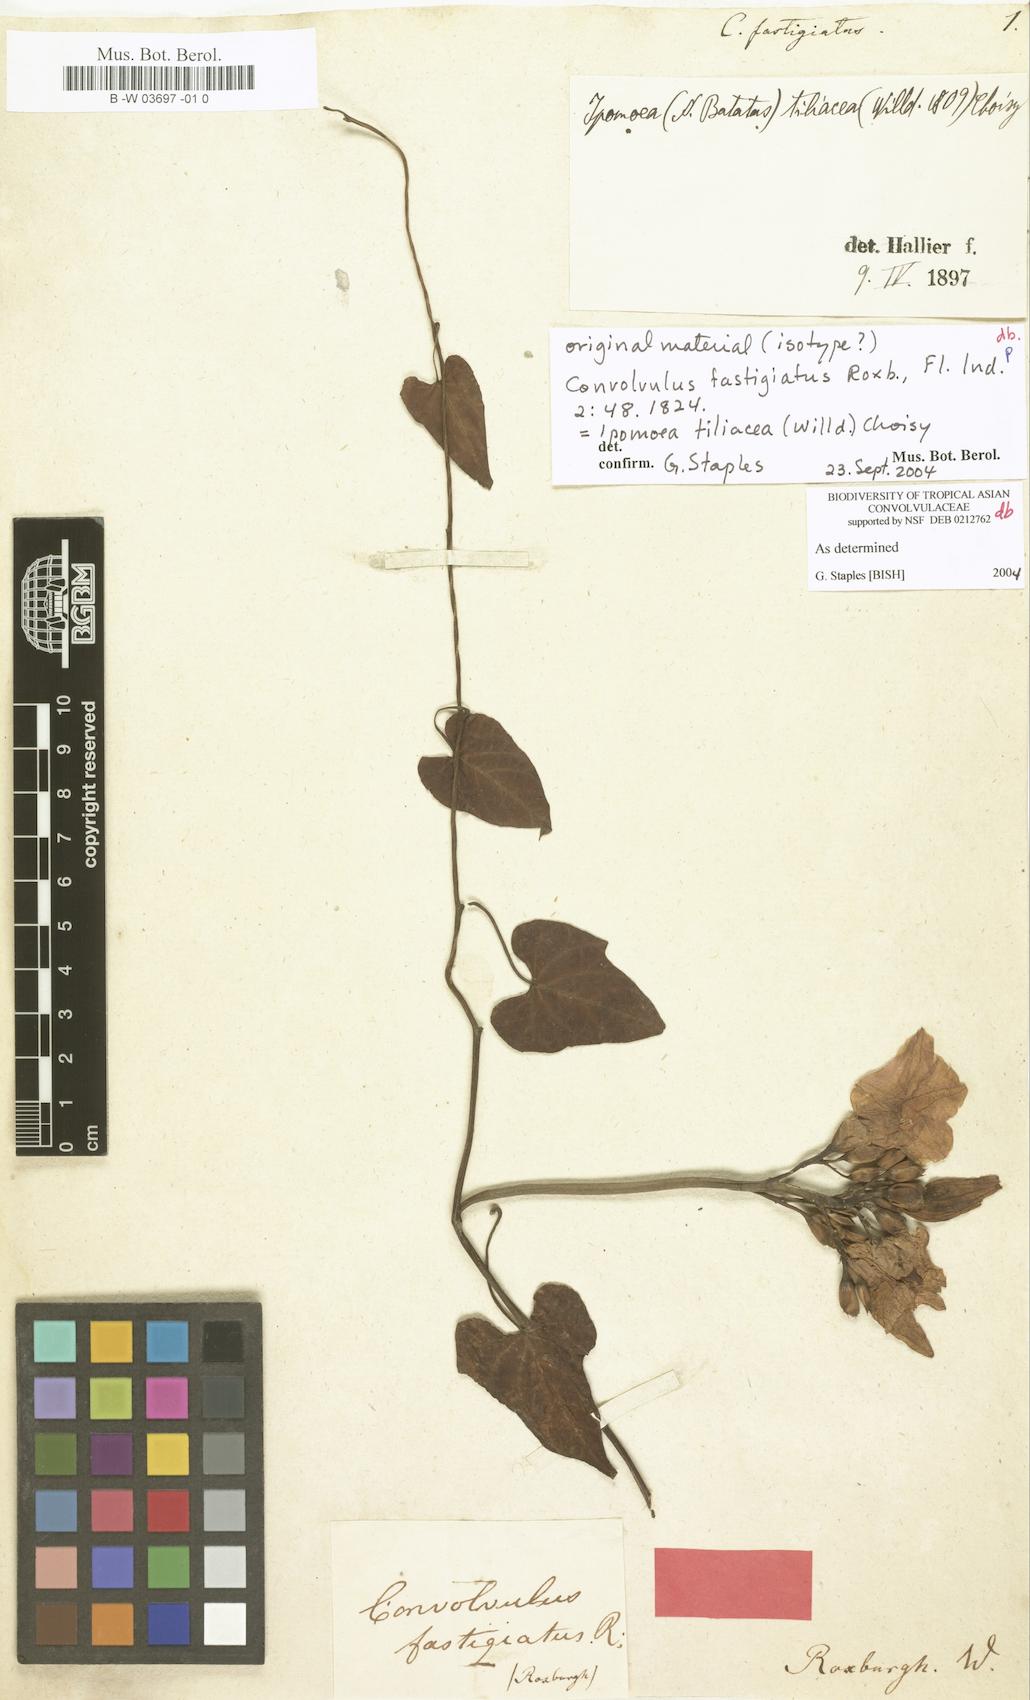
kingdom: Plantae
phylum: Tracheophyta
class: Magnoliopsida
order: Solanales
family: Convolvulaceae
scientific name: Convolvulaceae
